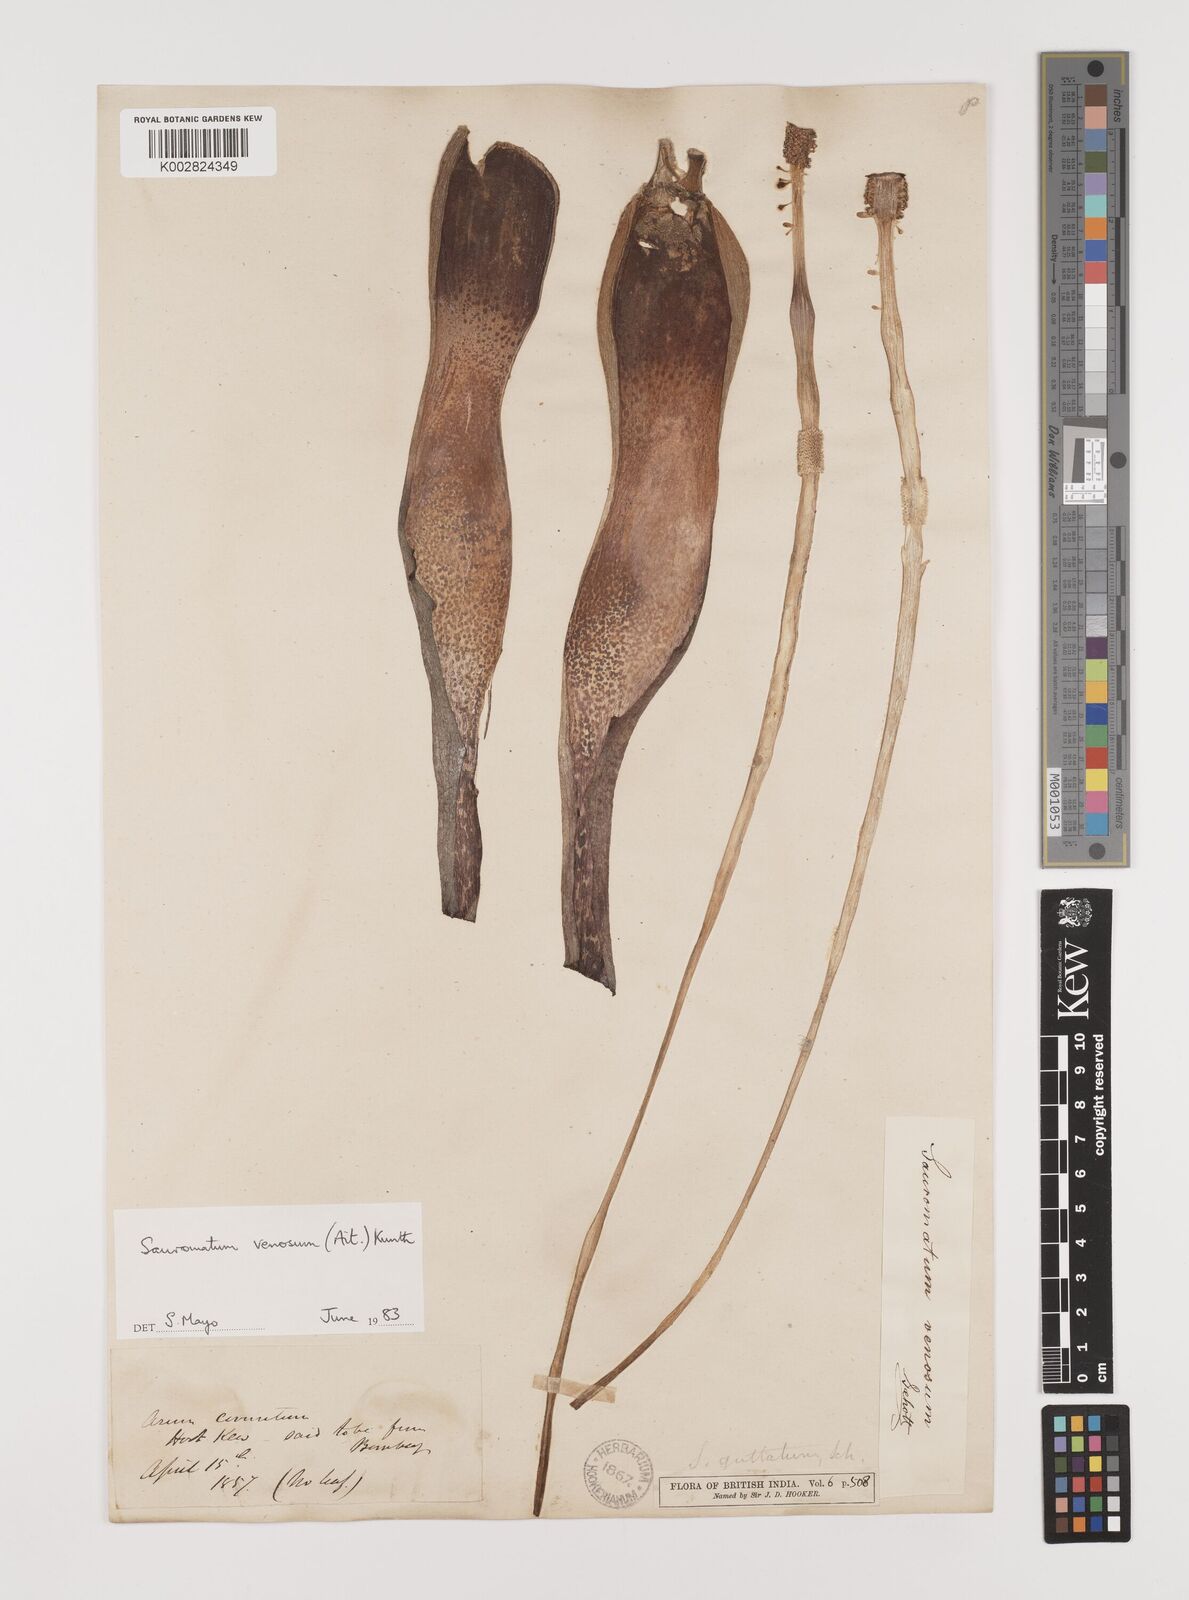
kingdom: Plantae
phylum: Tracheophyta
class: Liliopsida
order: Alismatales
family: Araceae
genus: Sauromatum
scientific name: Sauromatum venosum
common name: Voodoo lily
